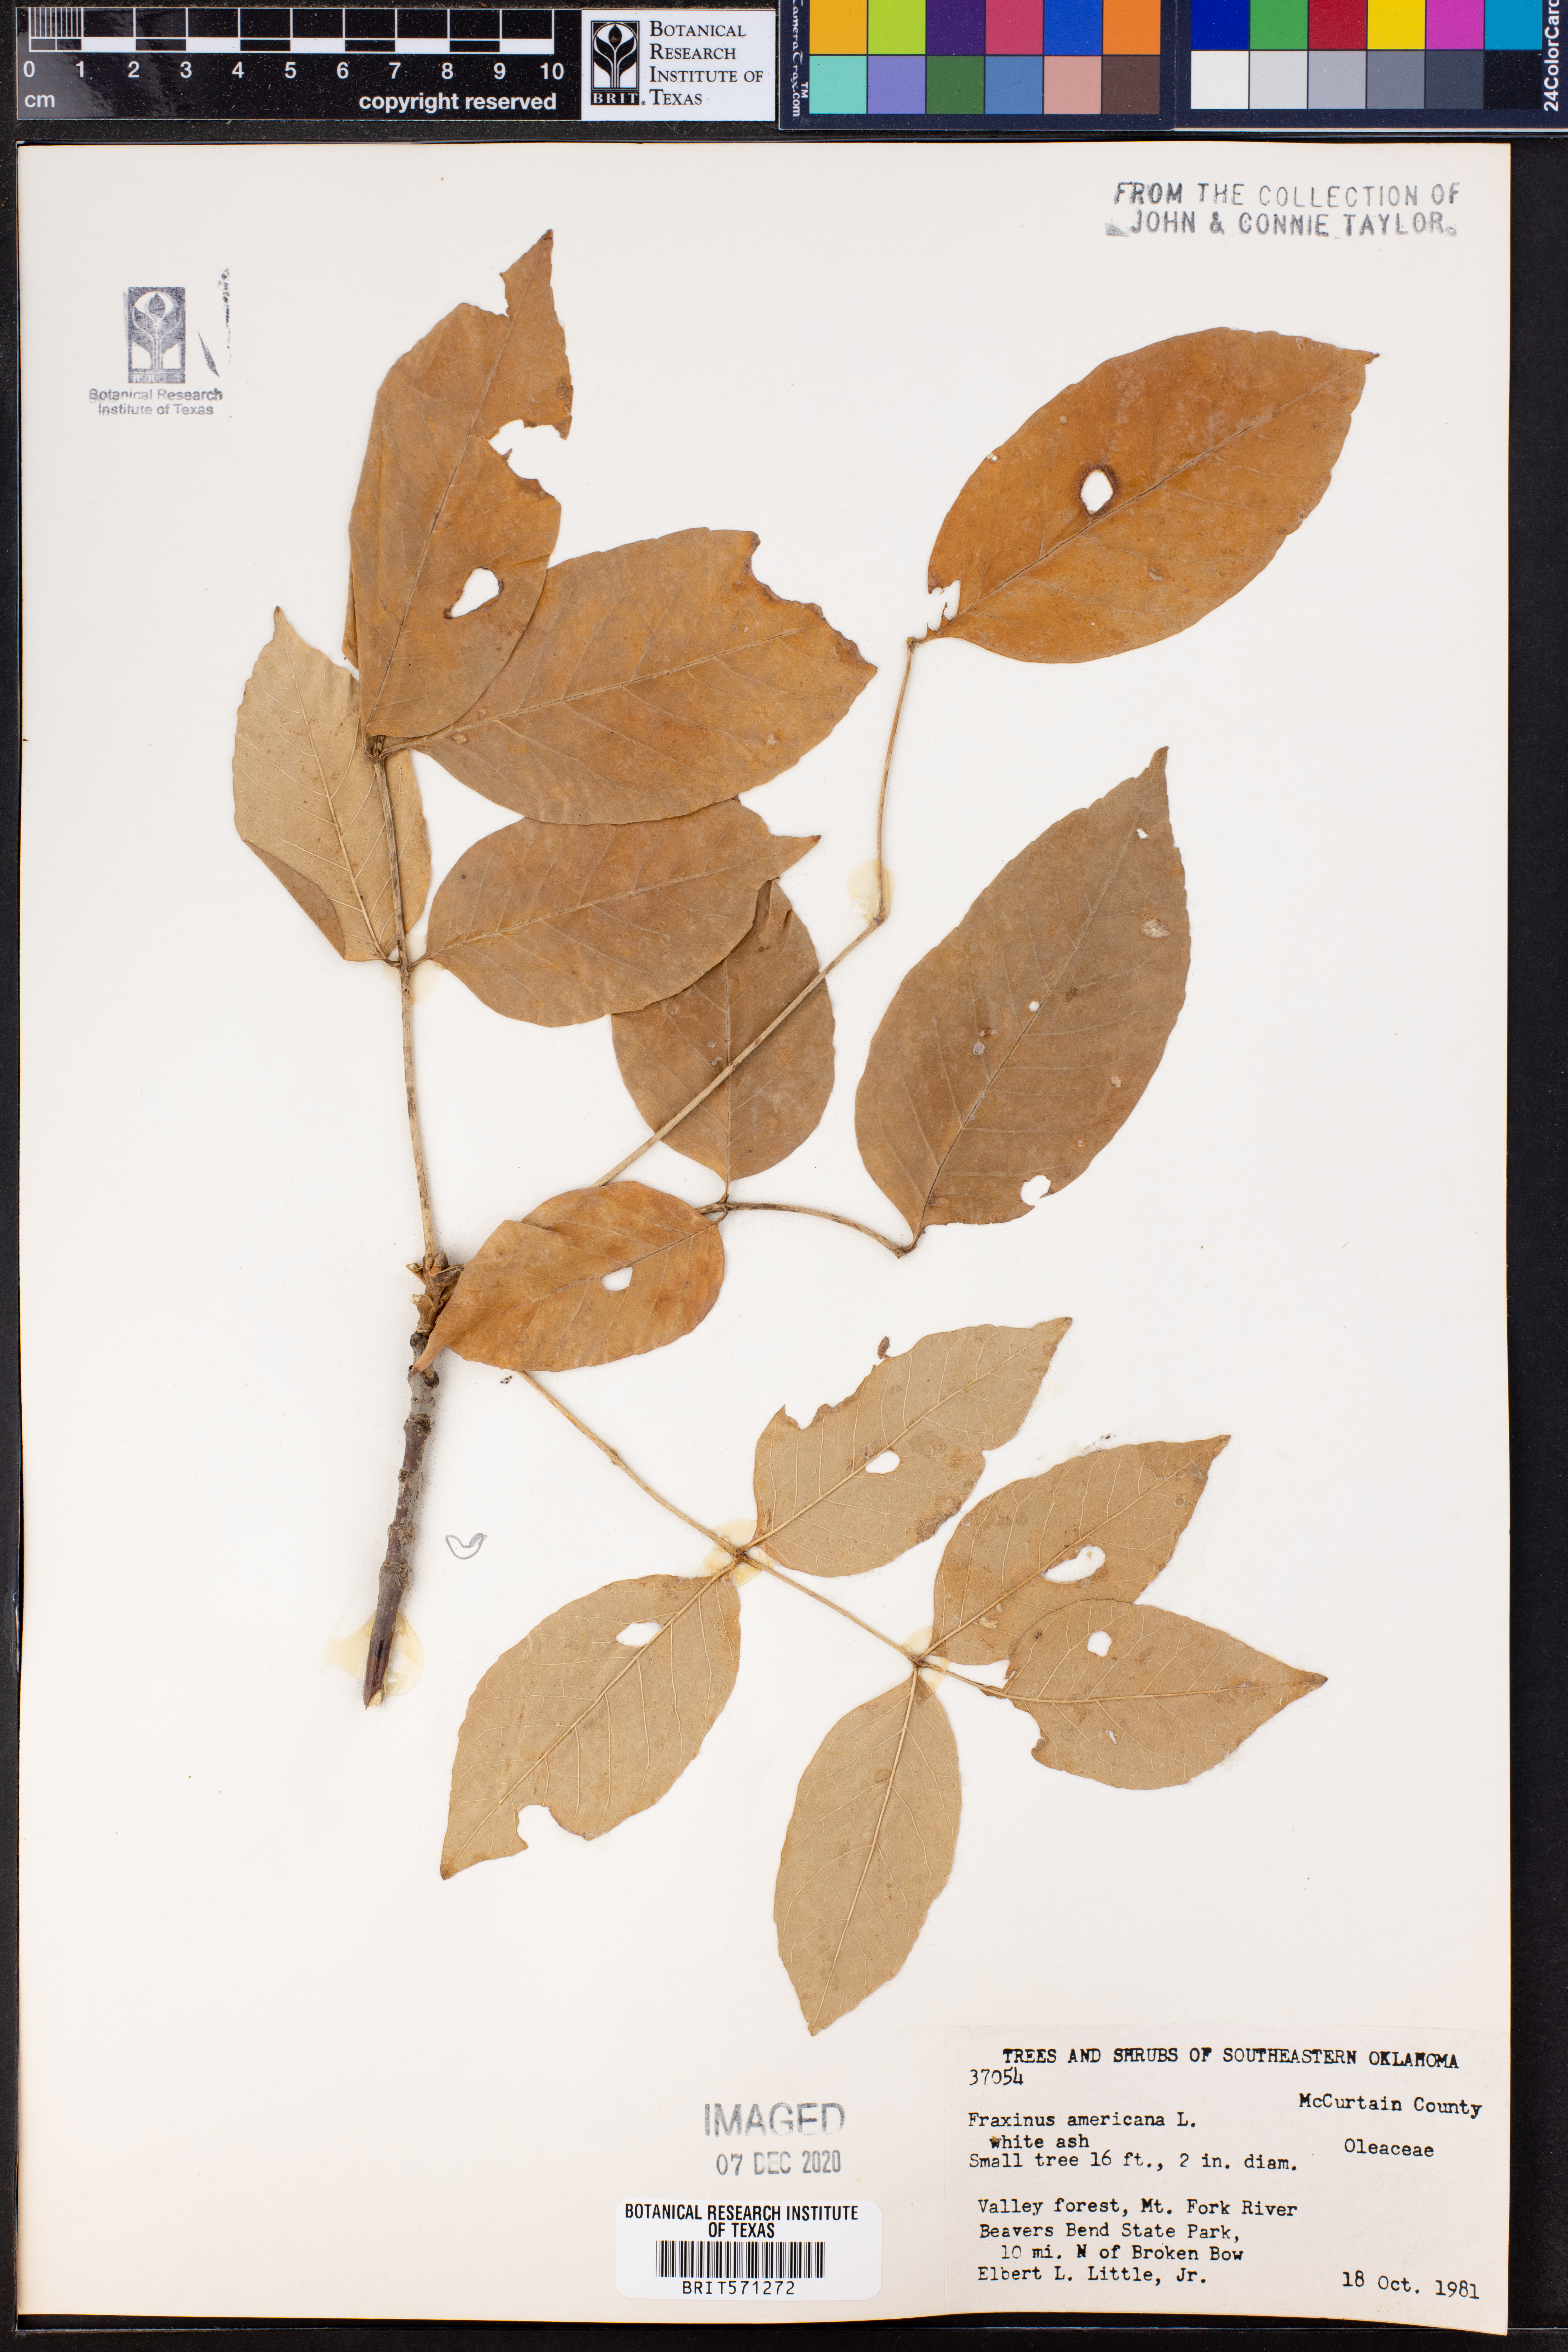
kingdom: Plantae
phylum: Tracheophyta
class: Magnoliopsida
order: Lamiales
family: Oleaceae
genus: Fraxinus
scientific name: Fraxinus americana
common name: White ash
